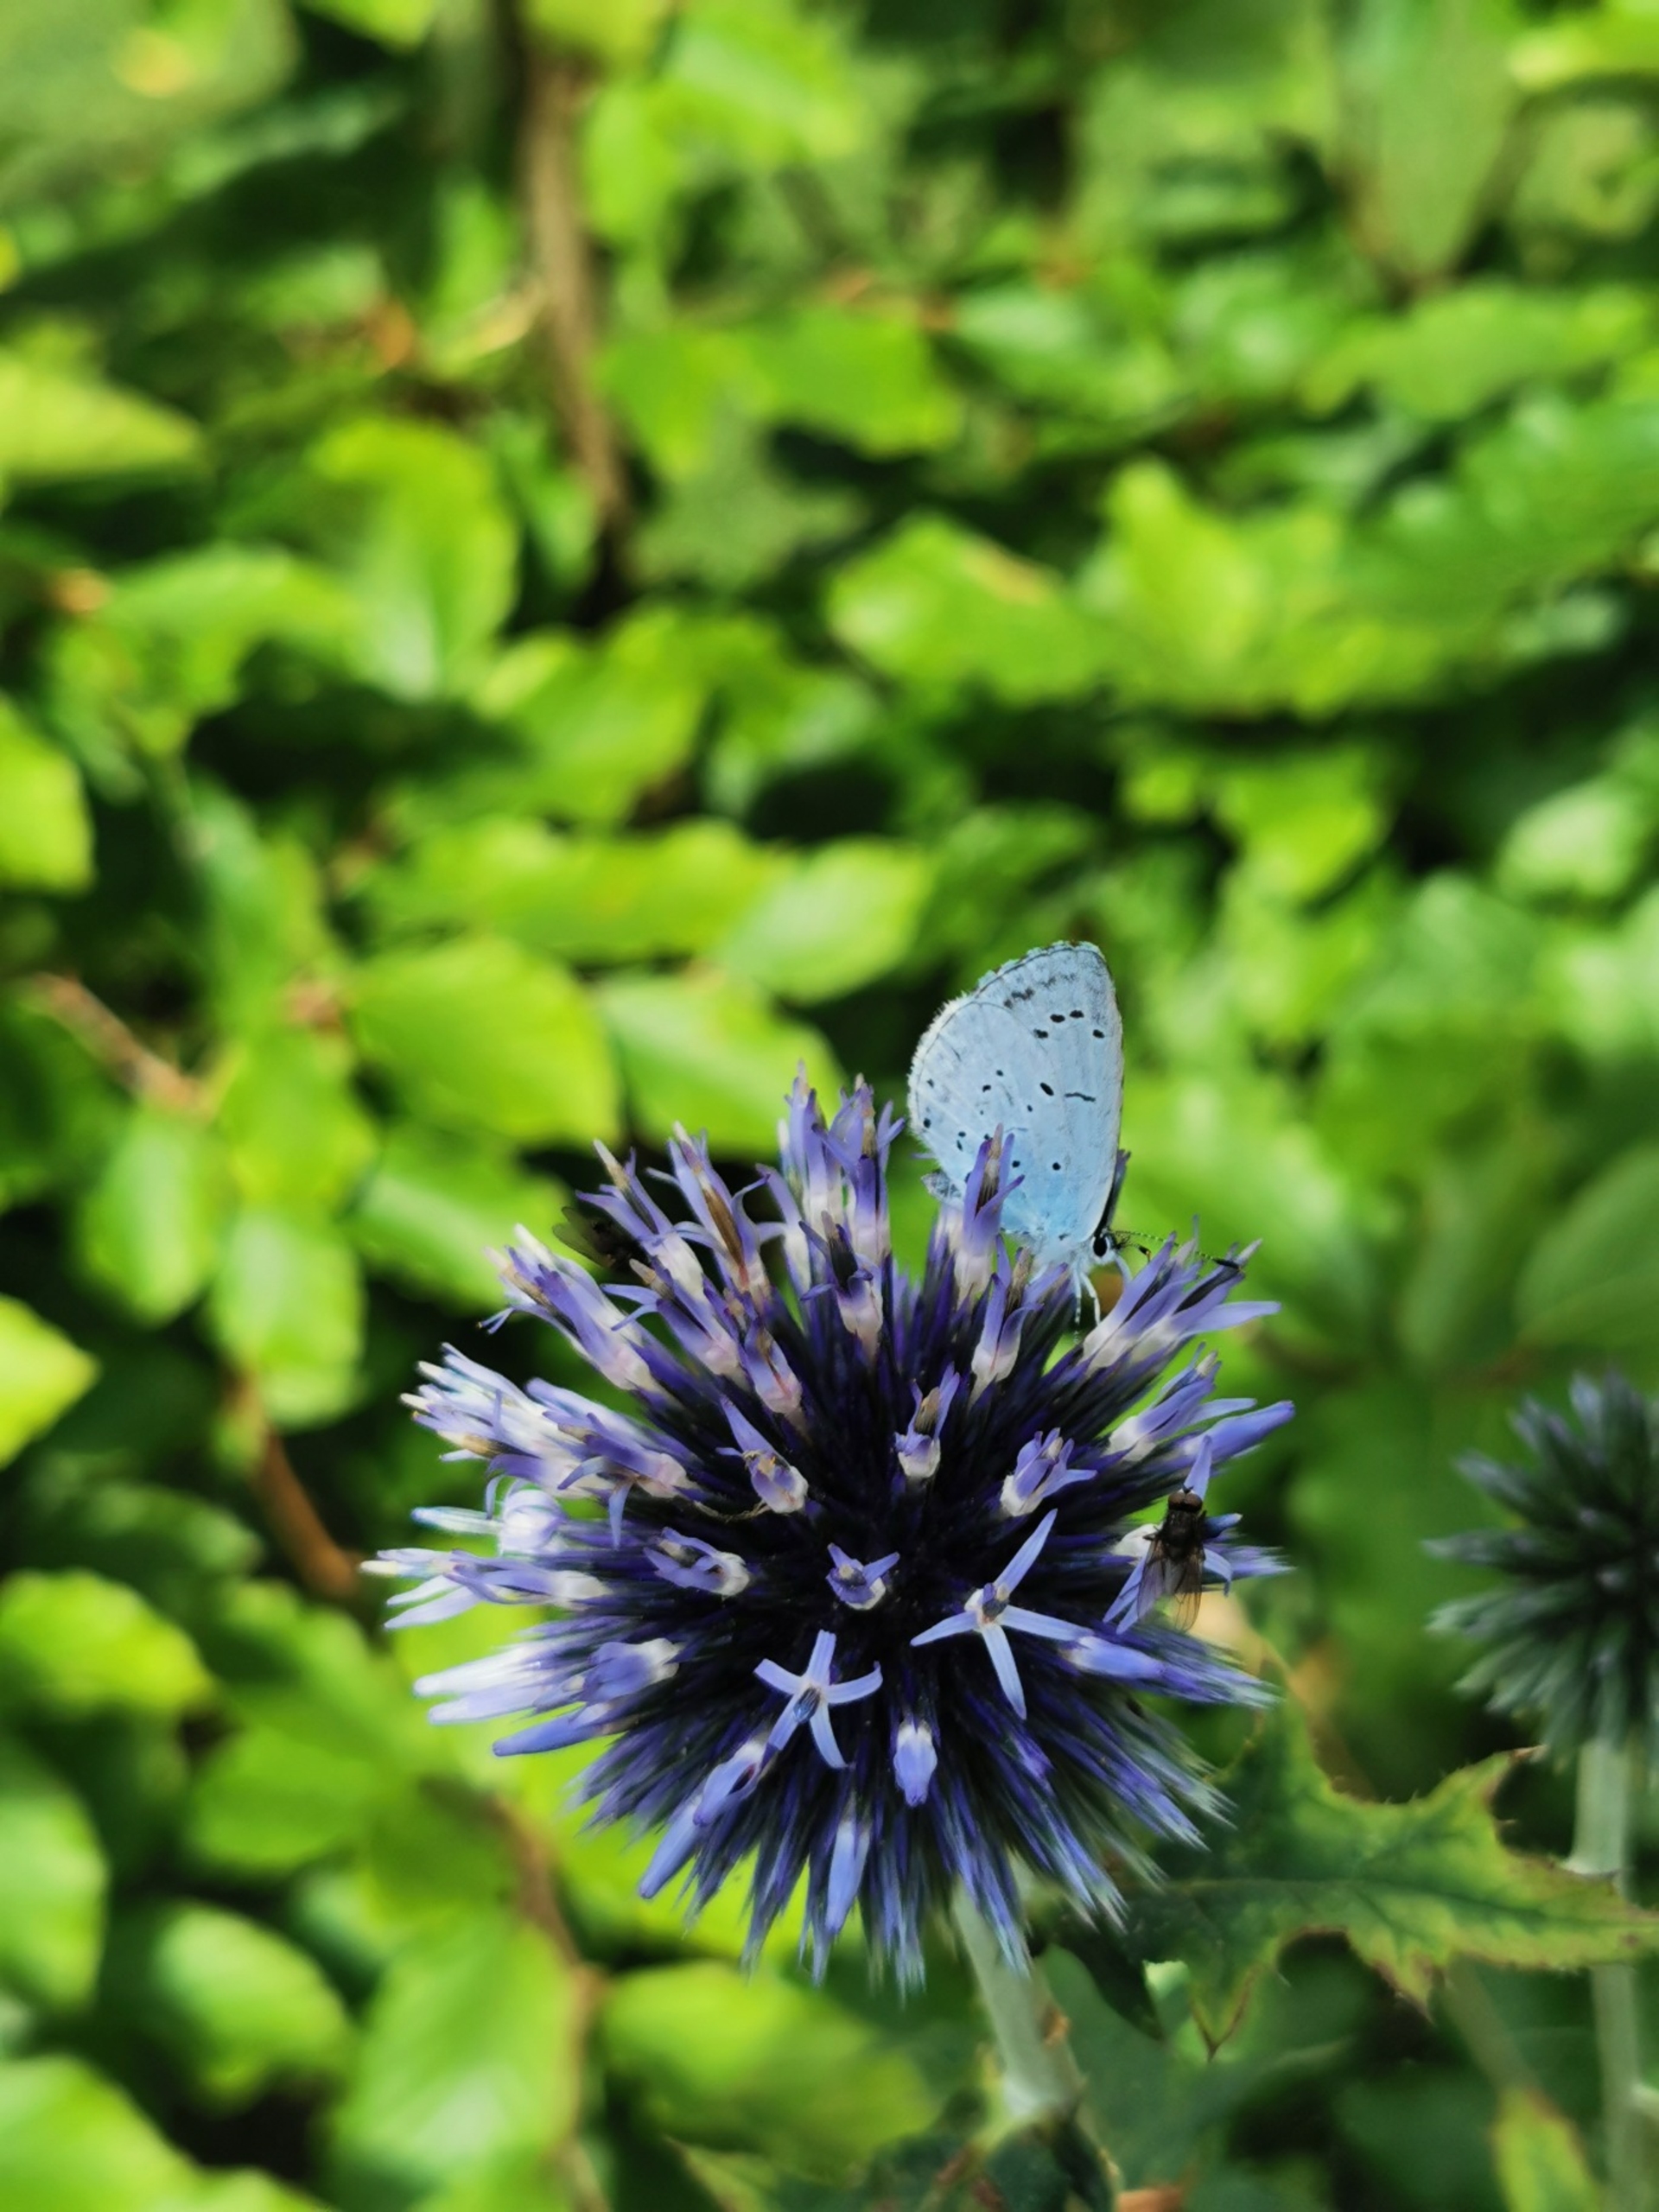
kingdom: Animalia
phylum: Arthropoda
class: Insecta
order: Lepidoptera
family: Lycaenidae
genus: Celastrina
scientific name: Celastrina argiolus
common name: Skovblåfugl
